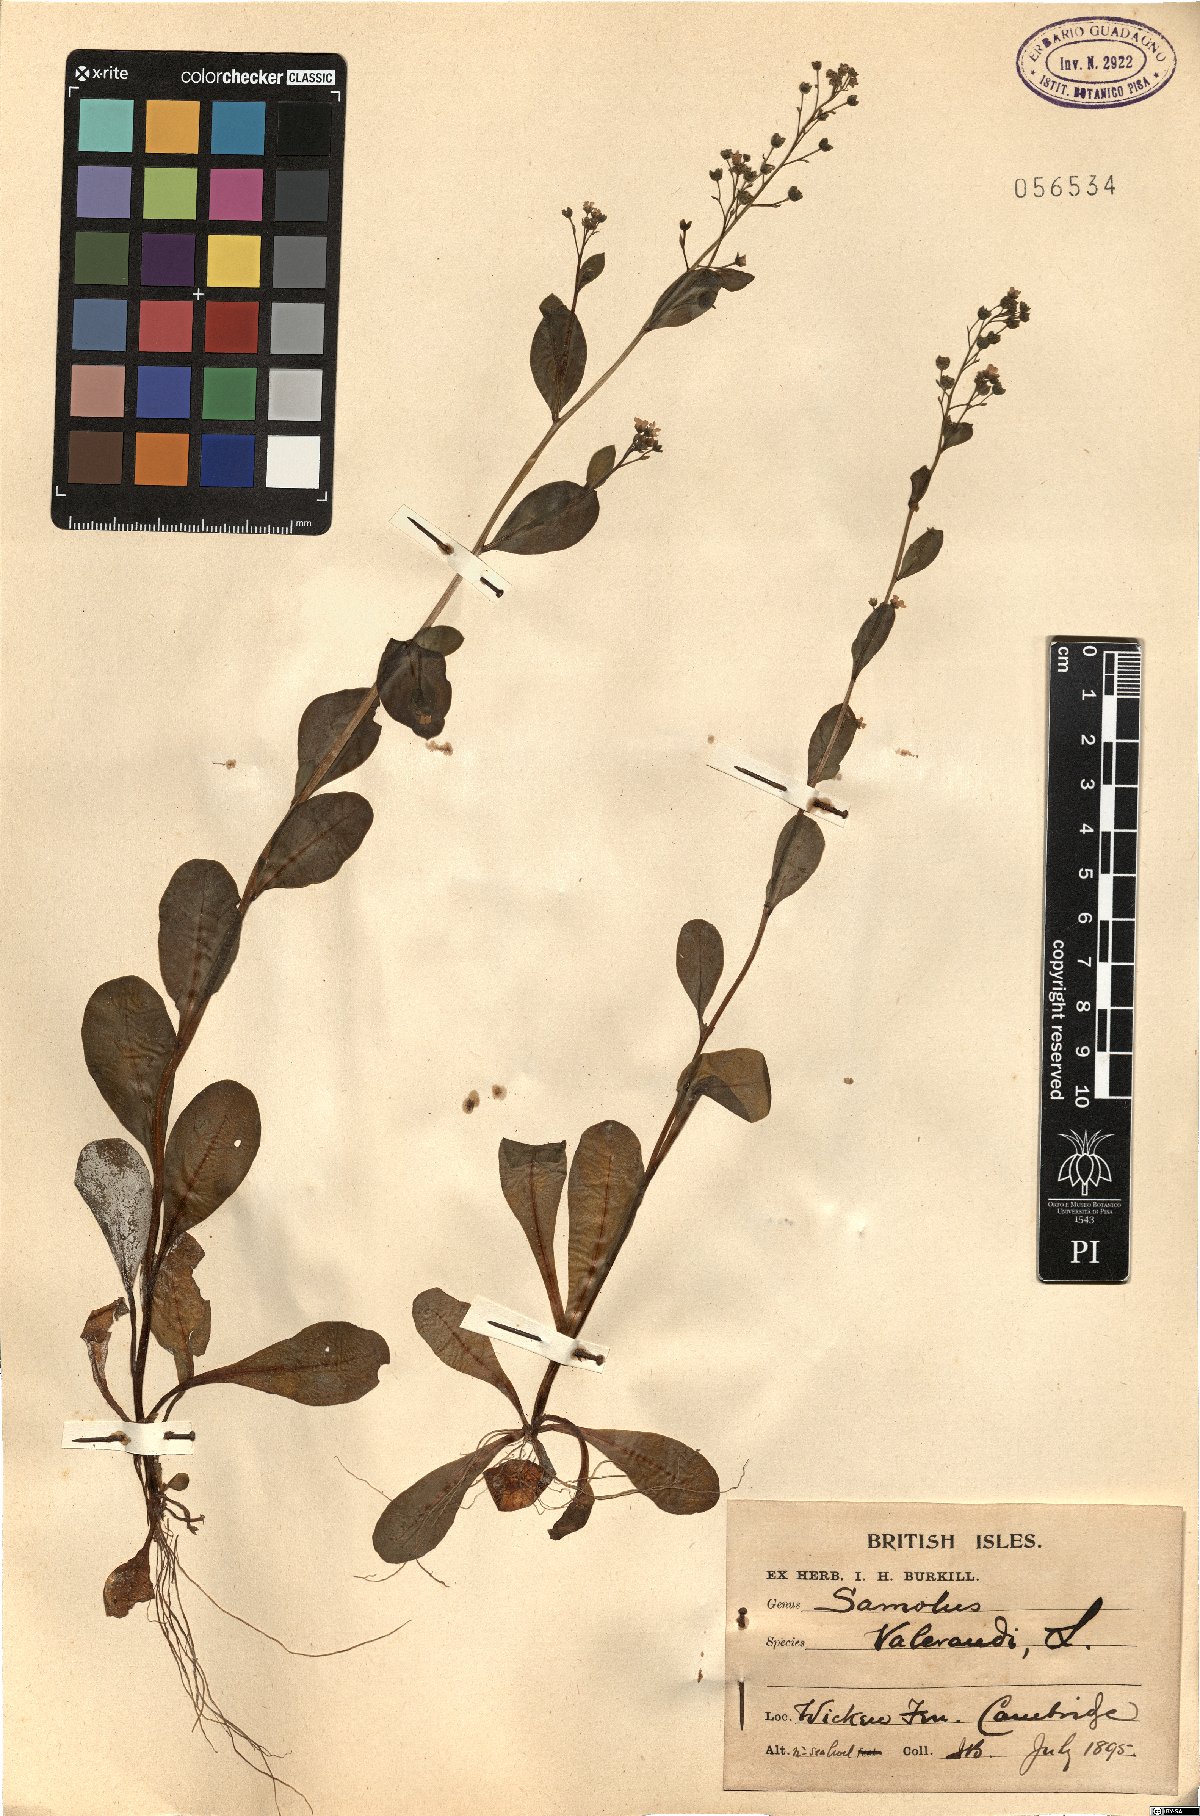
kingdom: Plantae
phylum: Tracheophyta
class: Magnoliopsida
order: Ericales
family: Primulaceae
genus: Samolus
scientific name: Samolus valerandi
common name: Brookweed
